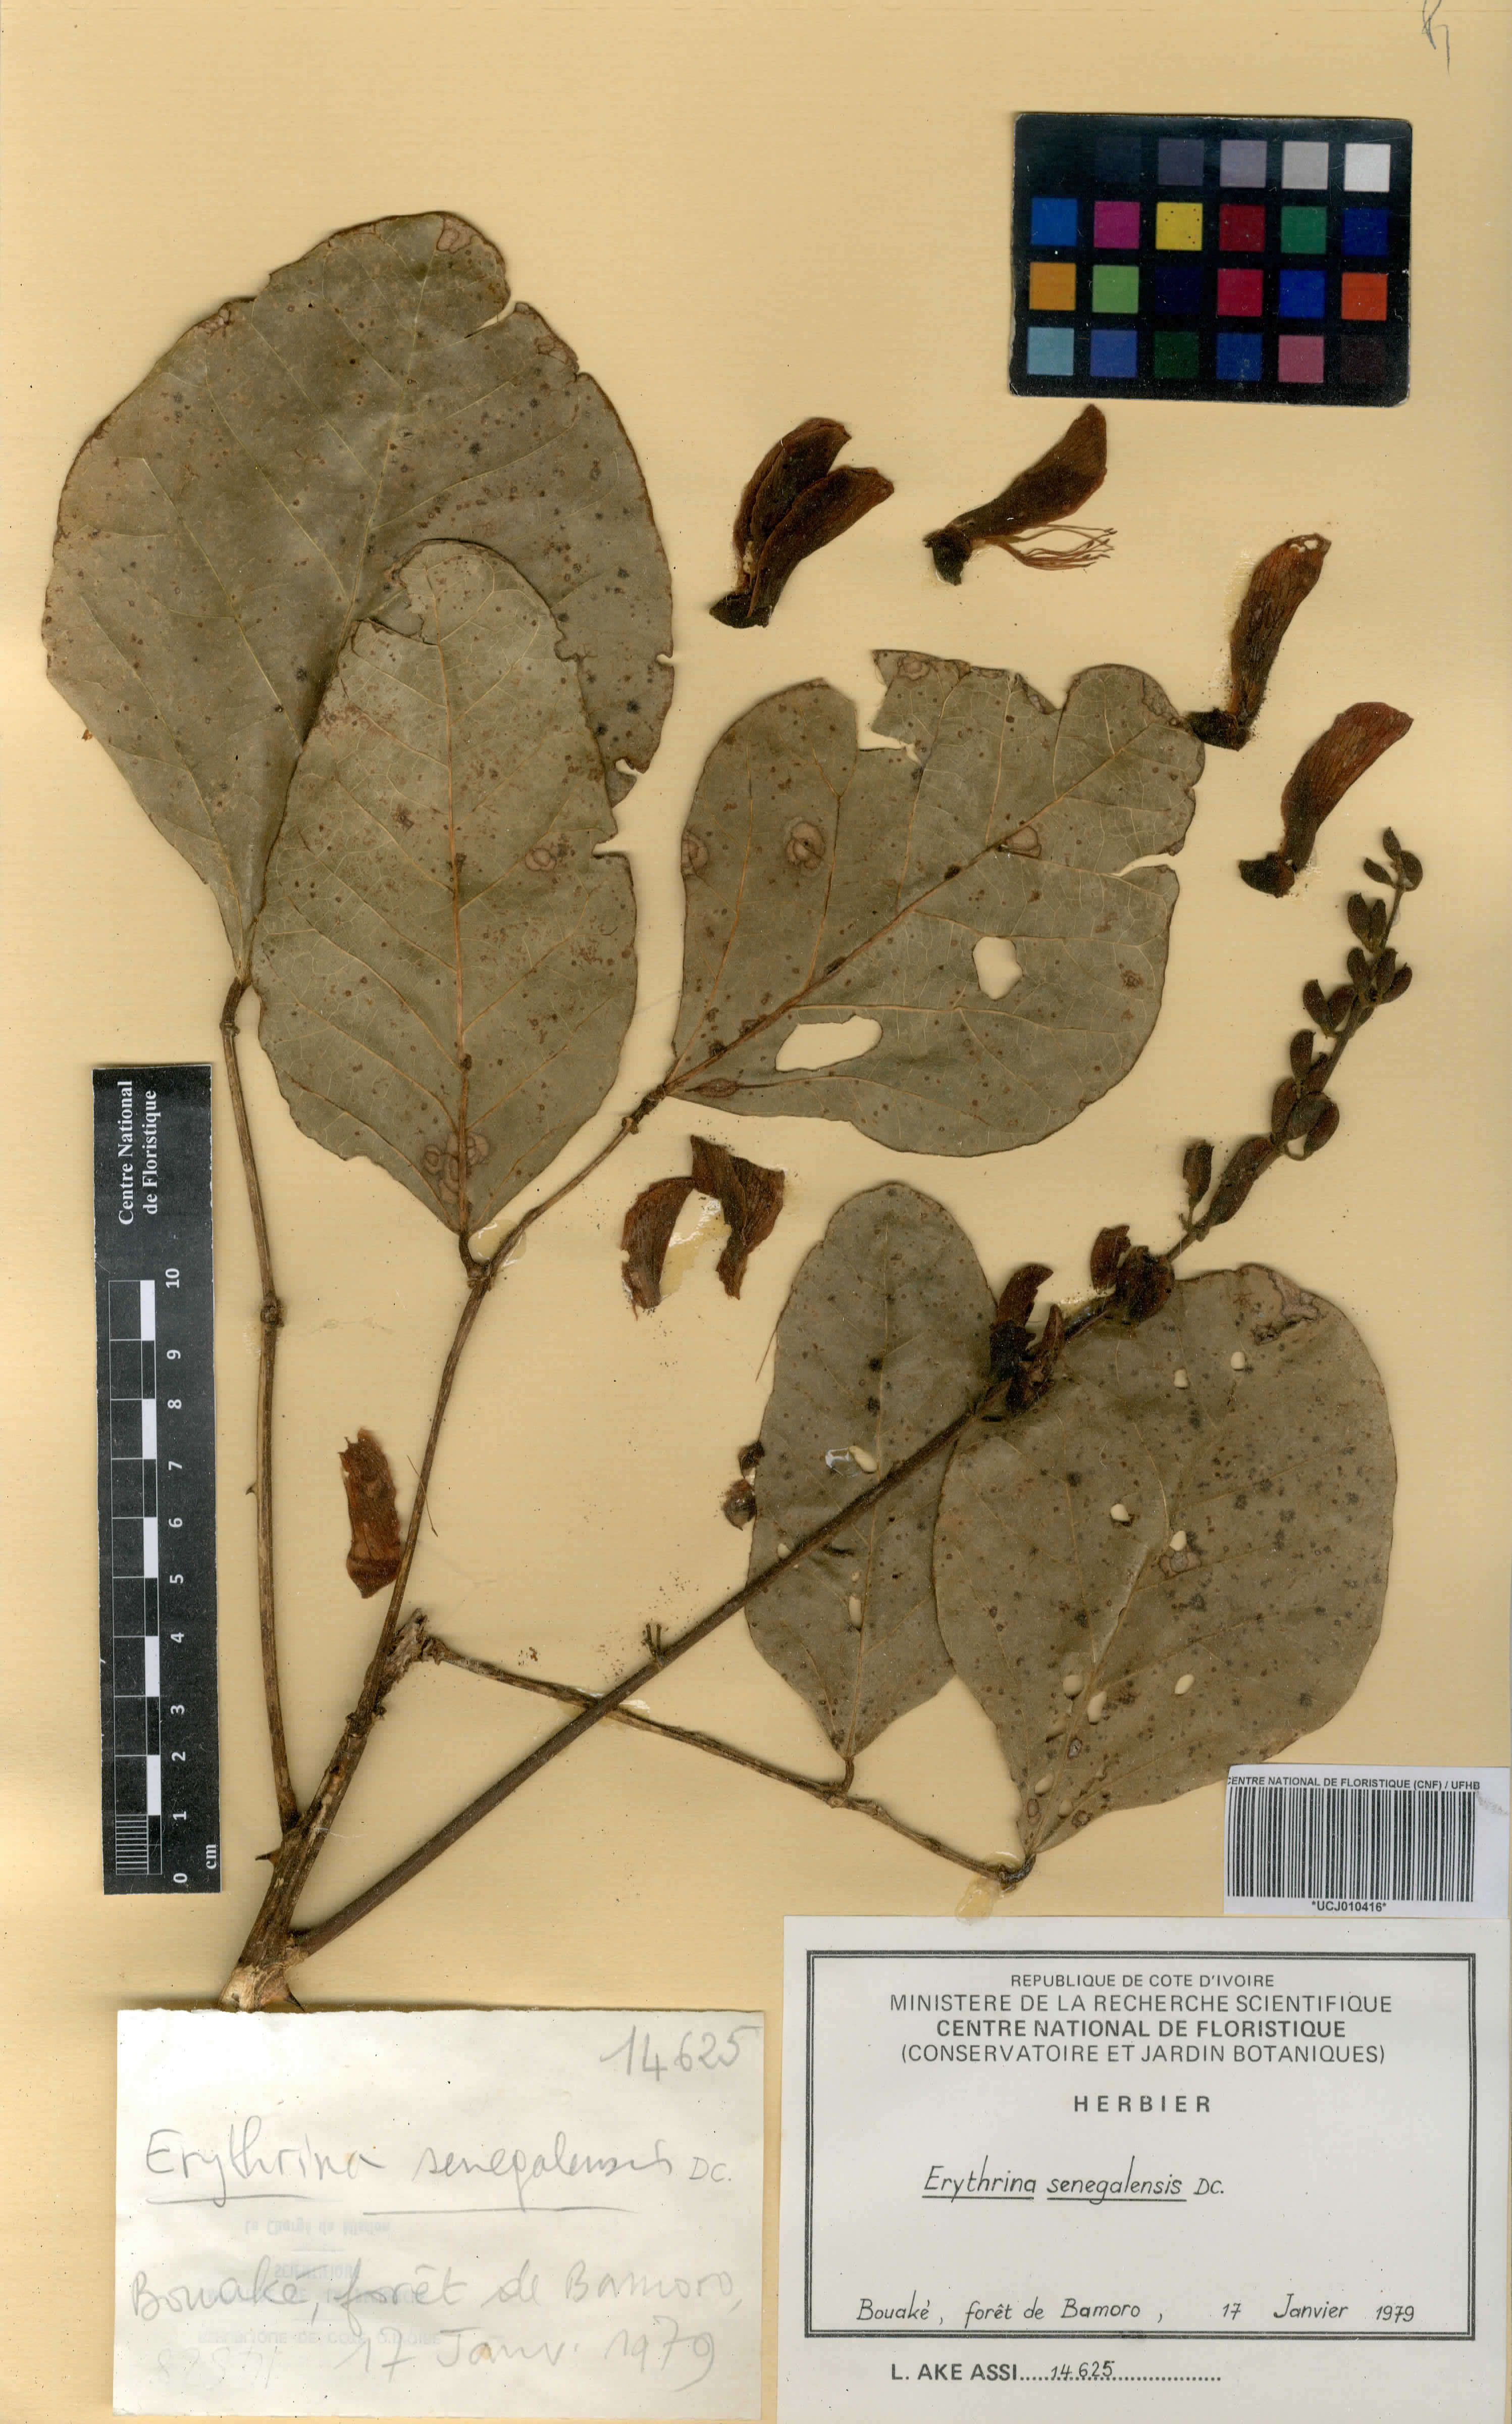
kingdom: Plantae
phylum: Tracheophyta
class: Magnoliopsida
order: Fabales
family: Fabaceae
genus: Erythrina
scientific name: Erythrina senegalensis
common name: Senegal coraltree
